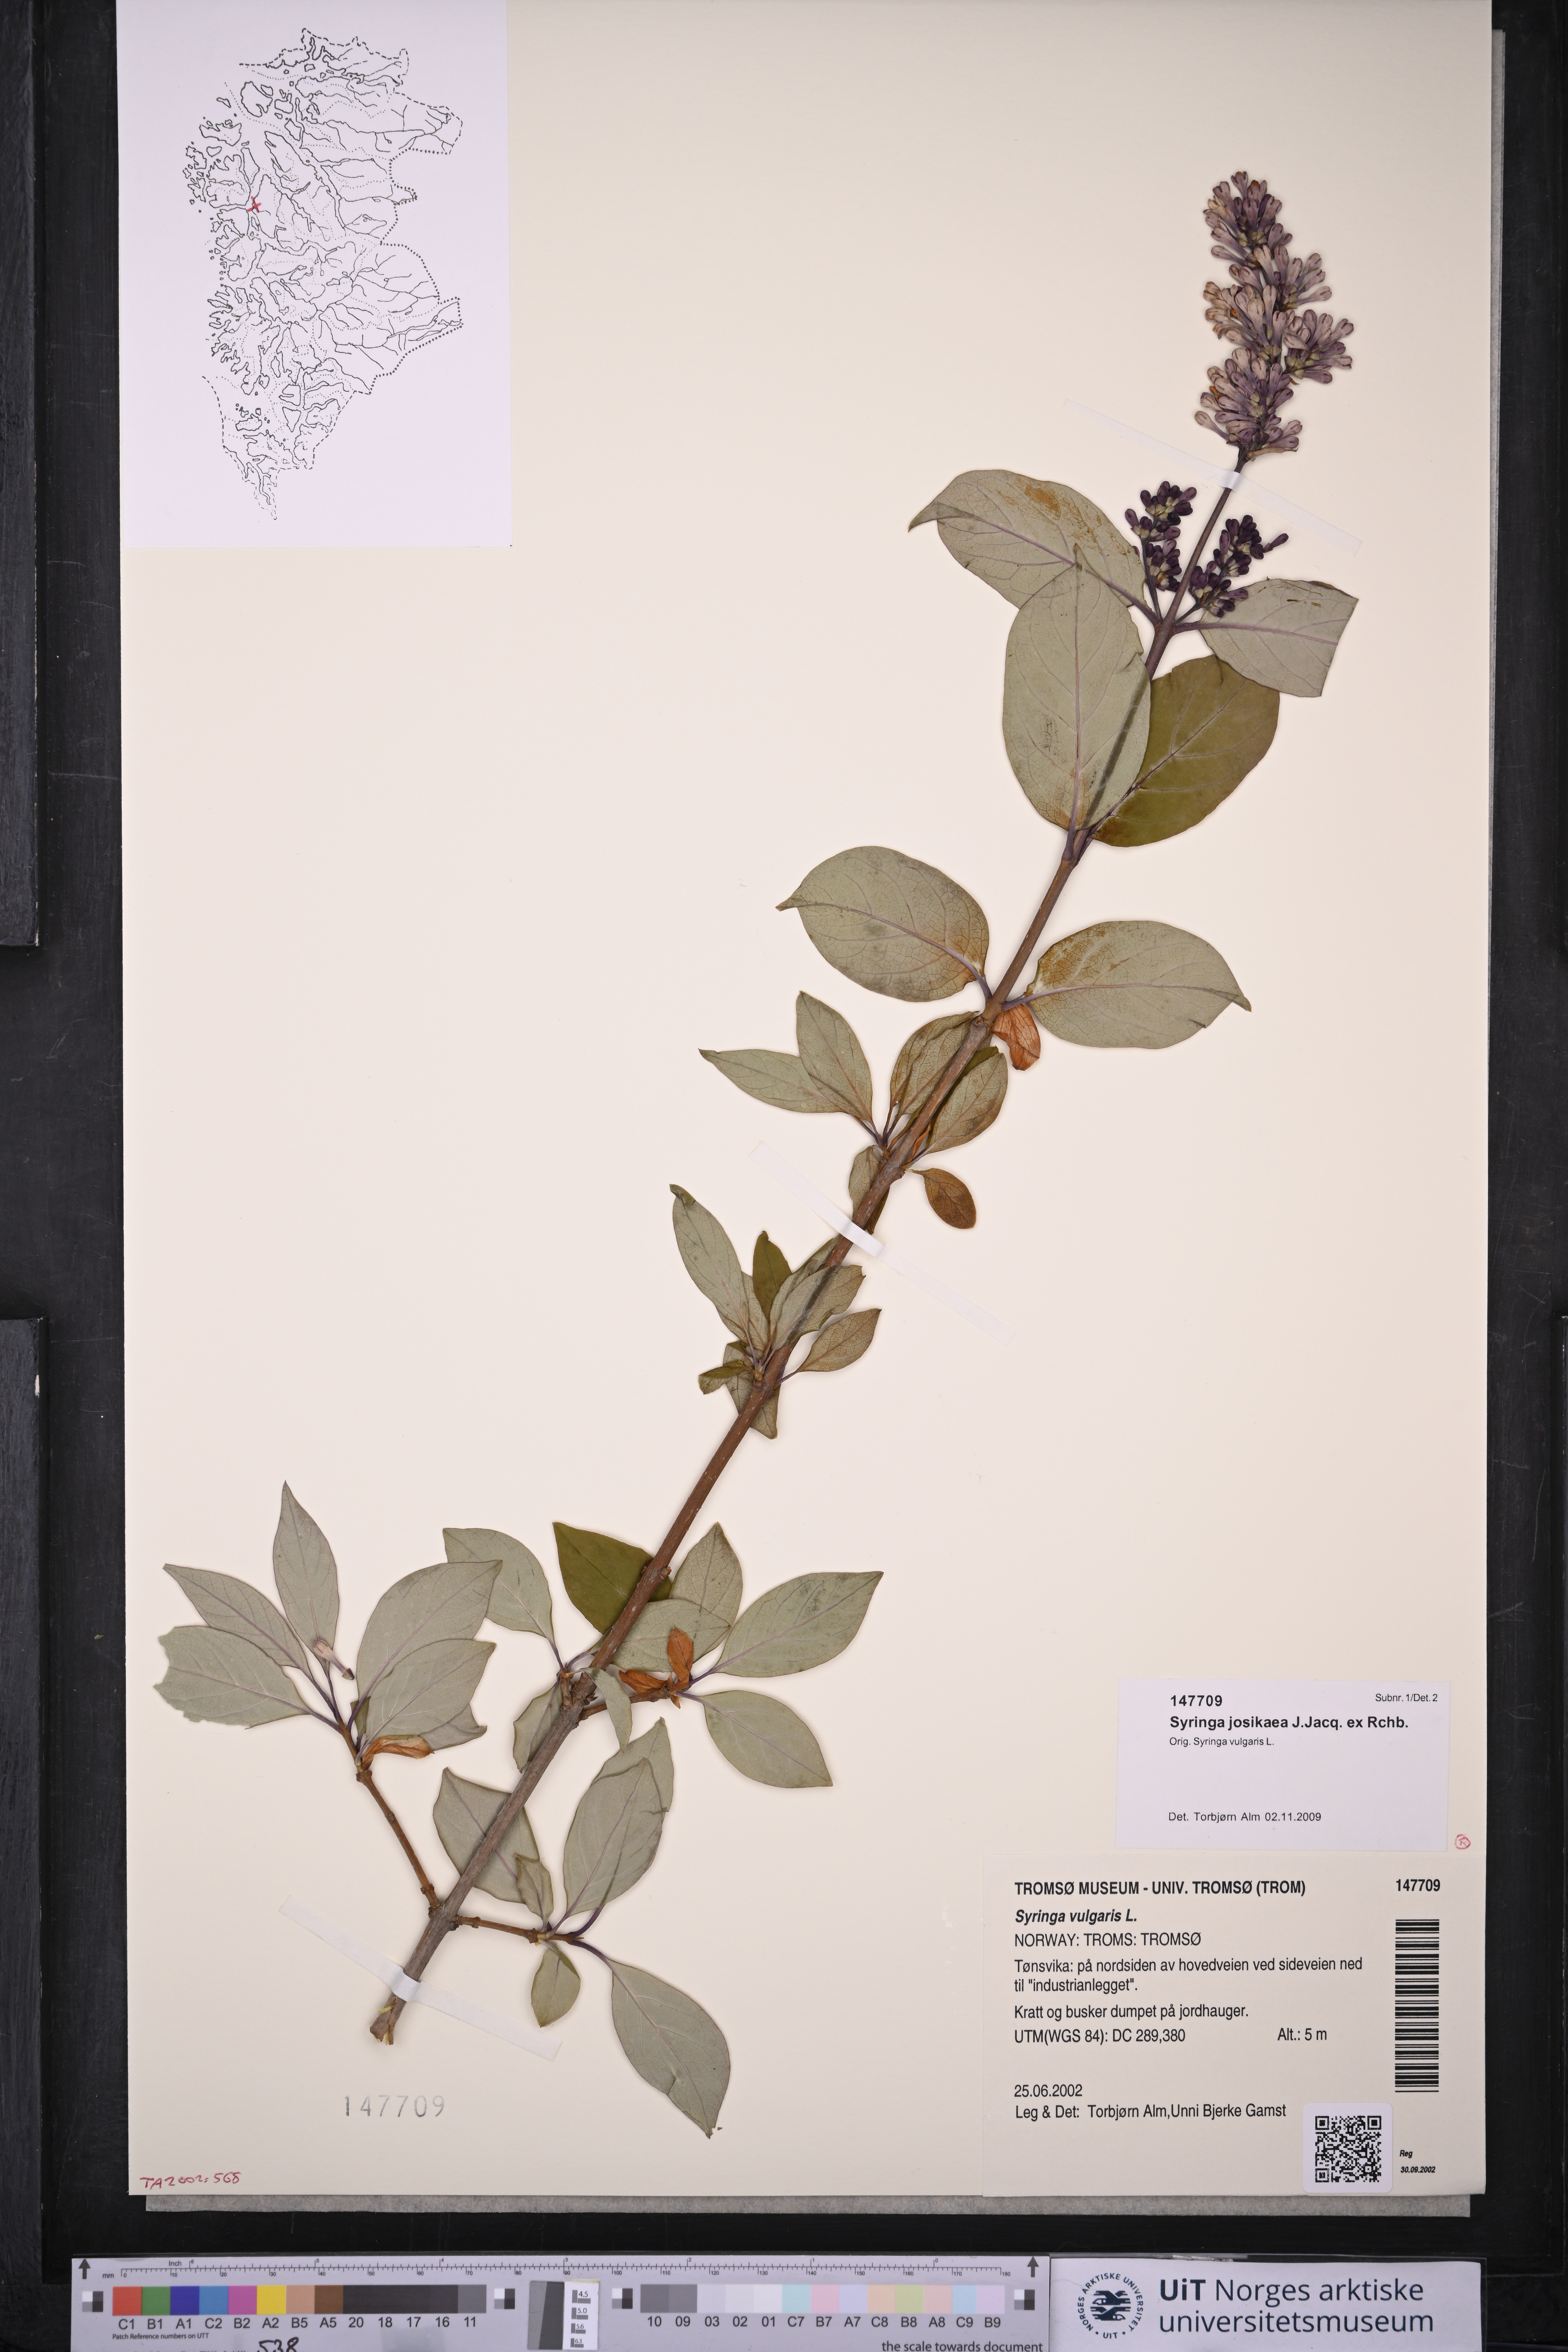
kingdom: Plantae
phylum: Tracheophyta
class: Magnoliopsida
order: Lamiales
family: Oleaceae
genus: Syringa
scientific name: Syringa josikaea
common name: Hungarian lilac
